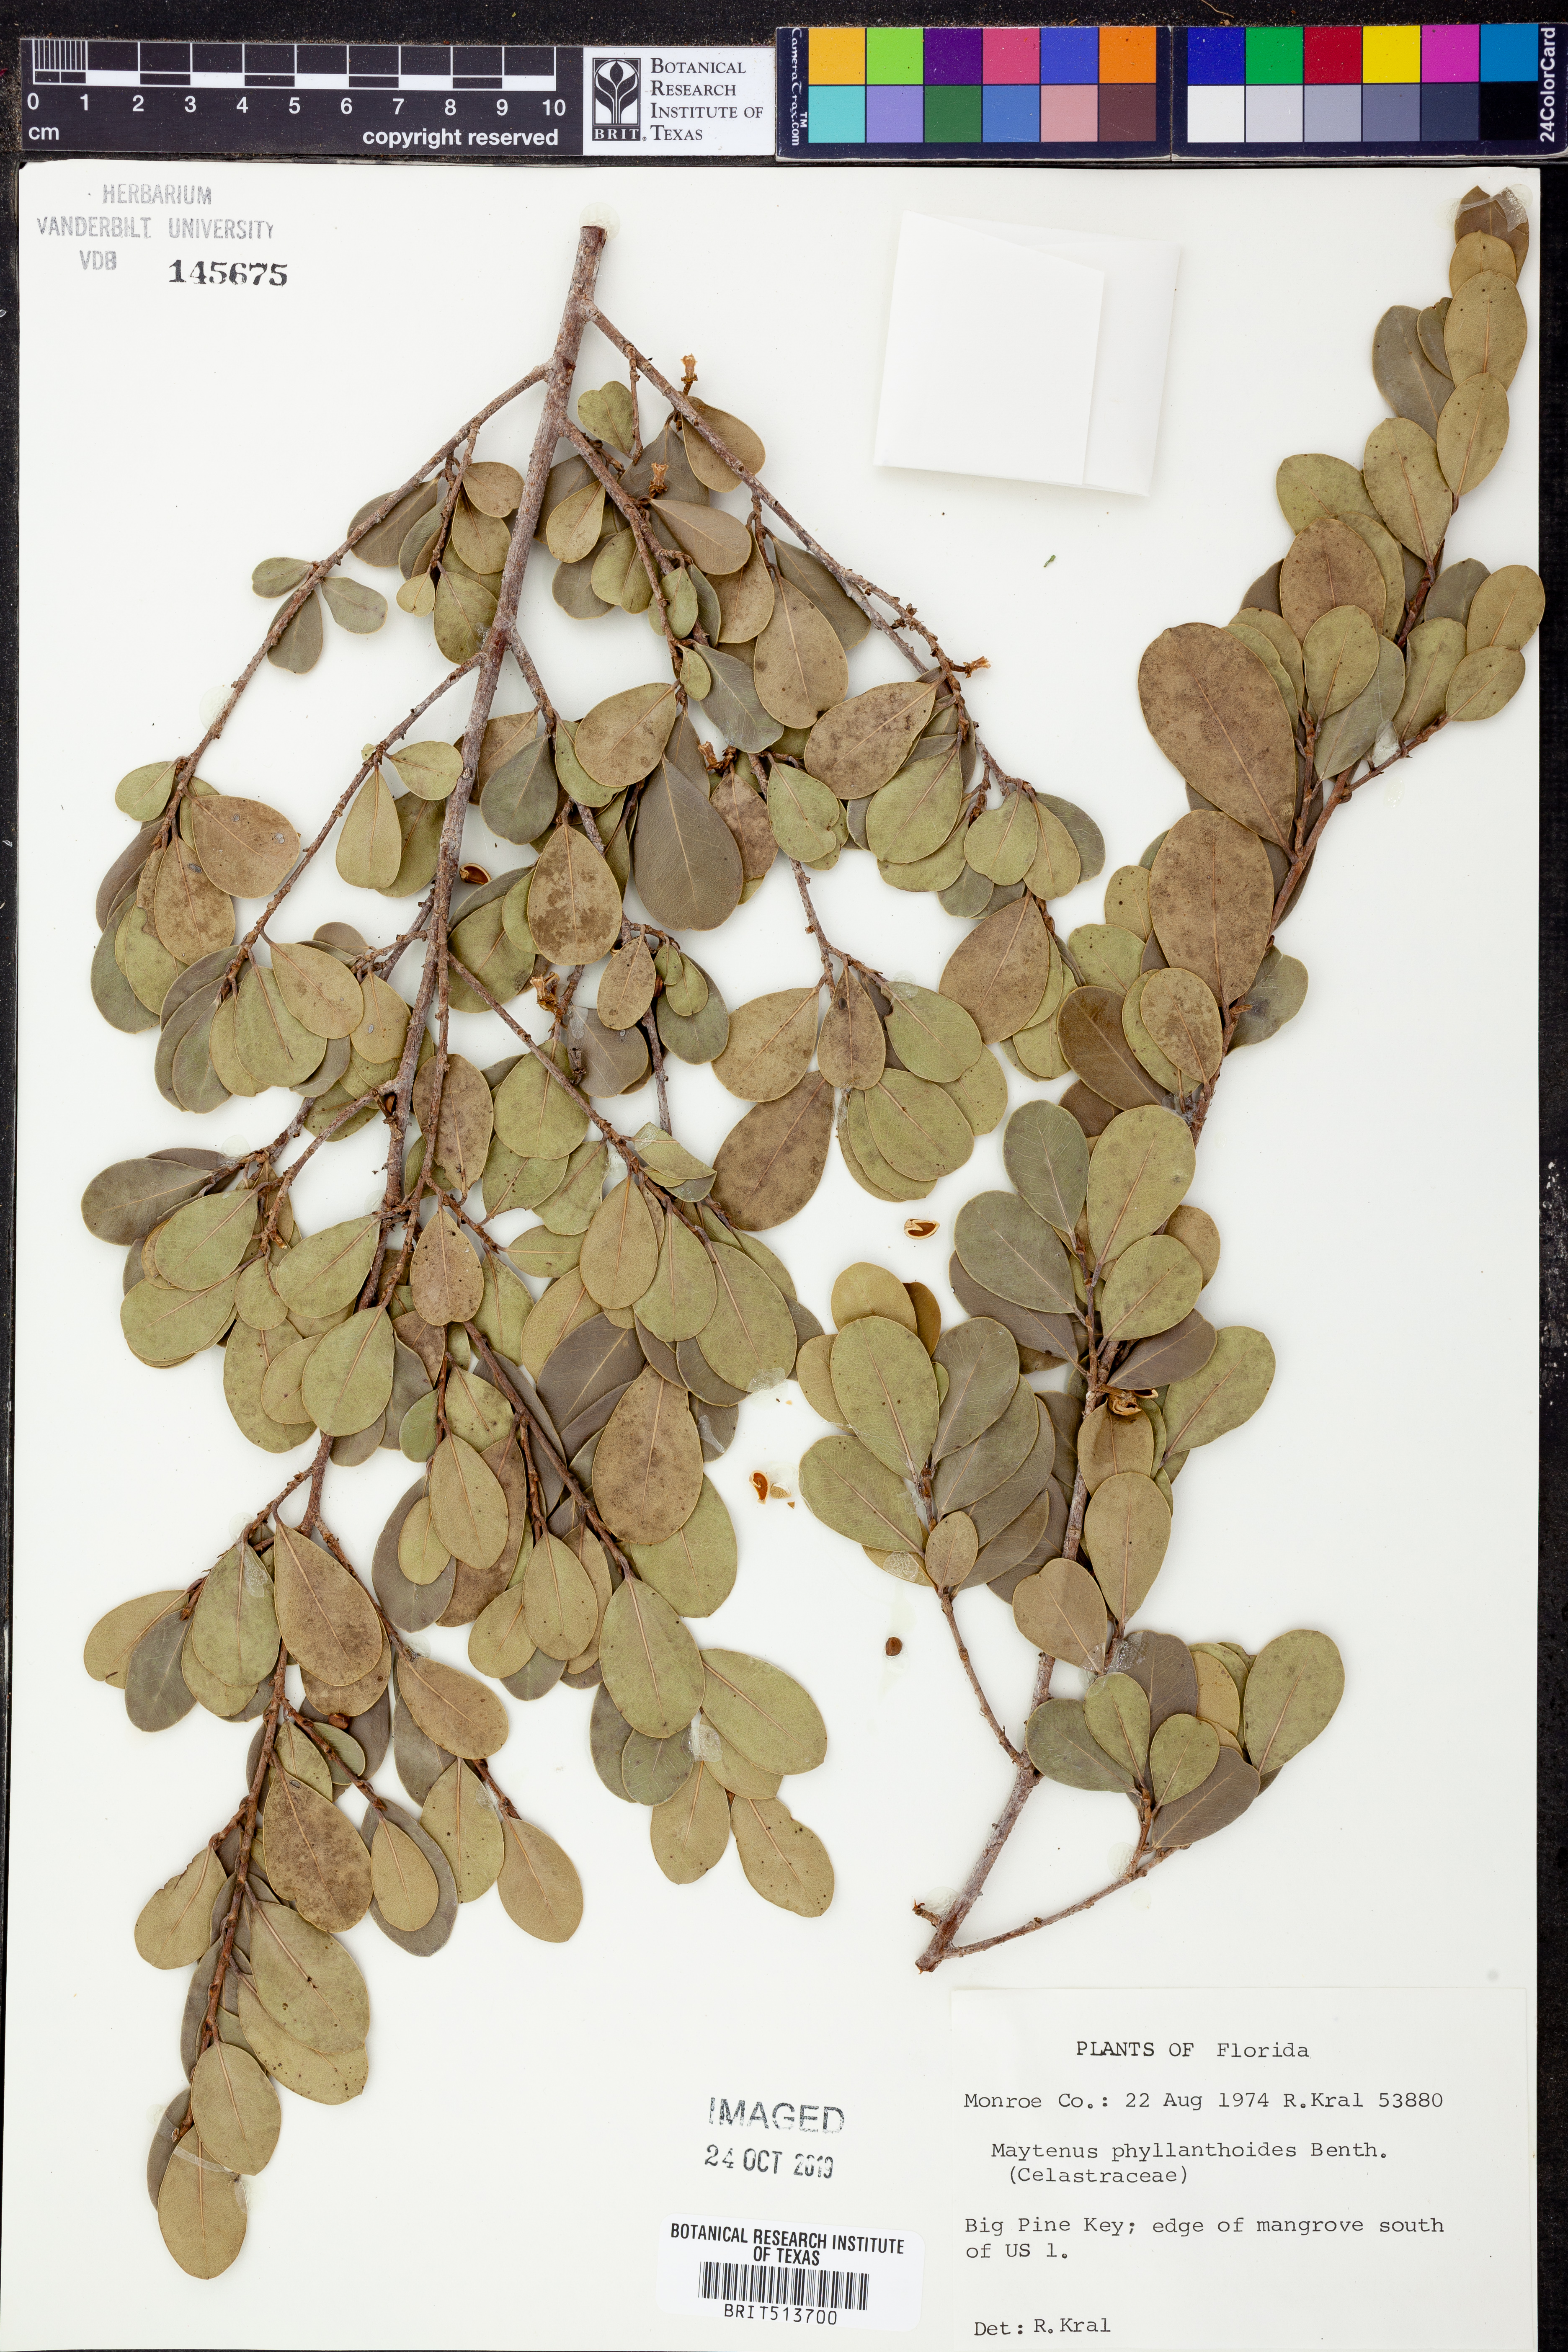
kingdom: Plantae
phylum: Tracheophyta
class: Magnoliopsida
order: Celastrales
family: Celastraceae
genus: Tricerma
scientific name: Tricerma phyllanthoides
